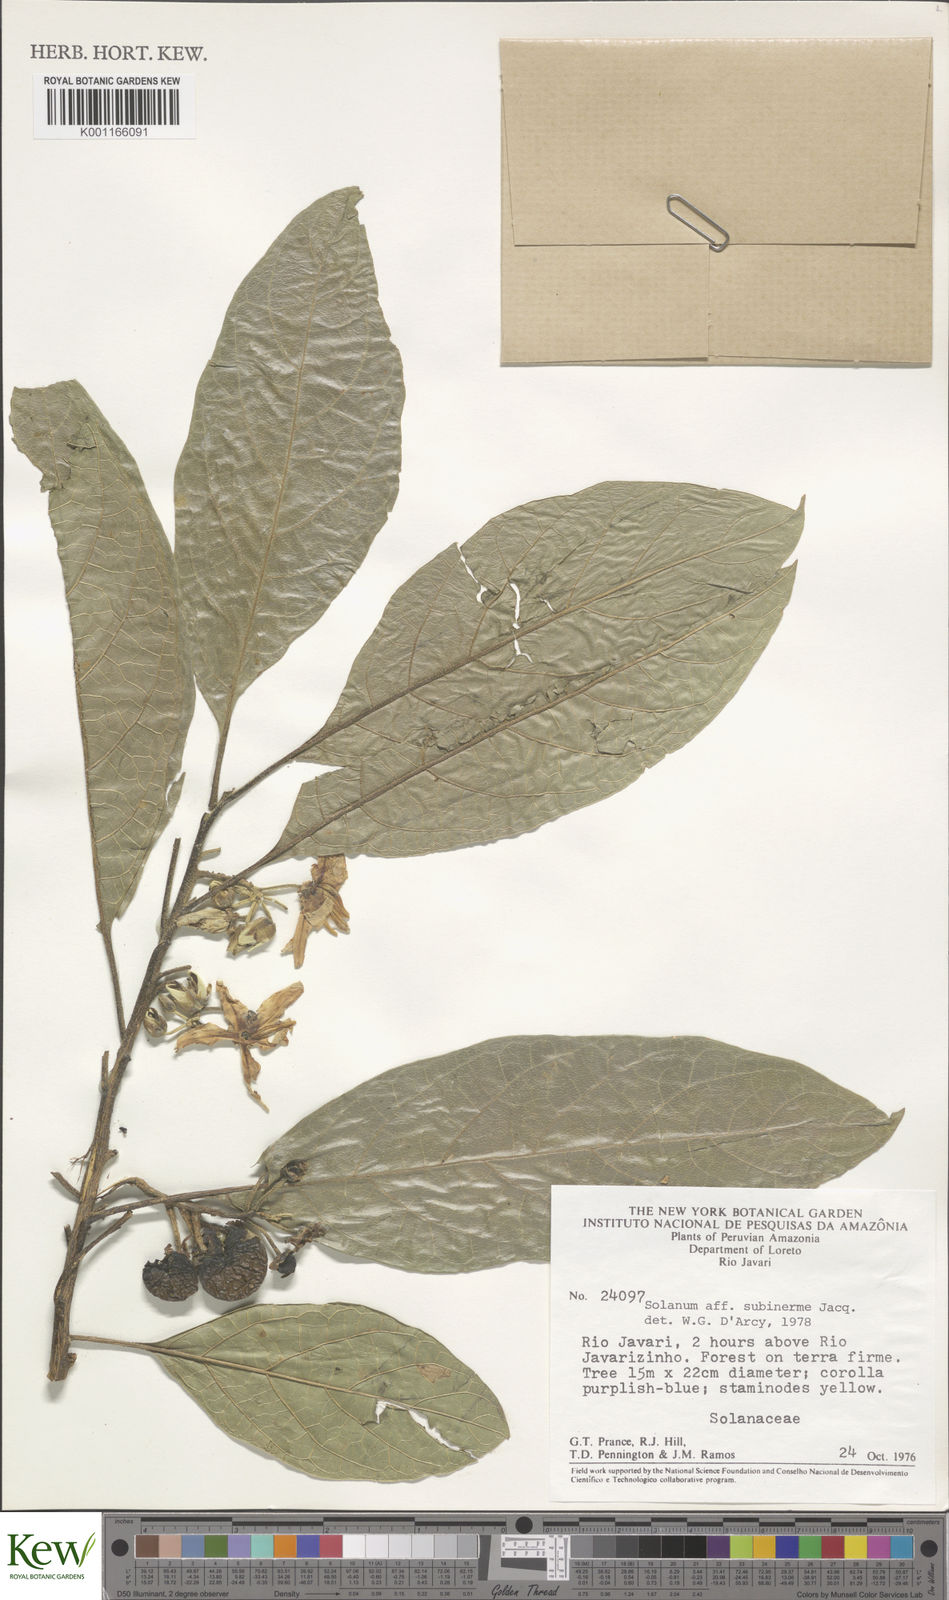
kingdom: Plantae
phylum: Tracheophyta
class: Magnoliopsida
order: Solanales
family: Solanaceae
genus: Solanum
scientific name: Solanum subinerme
